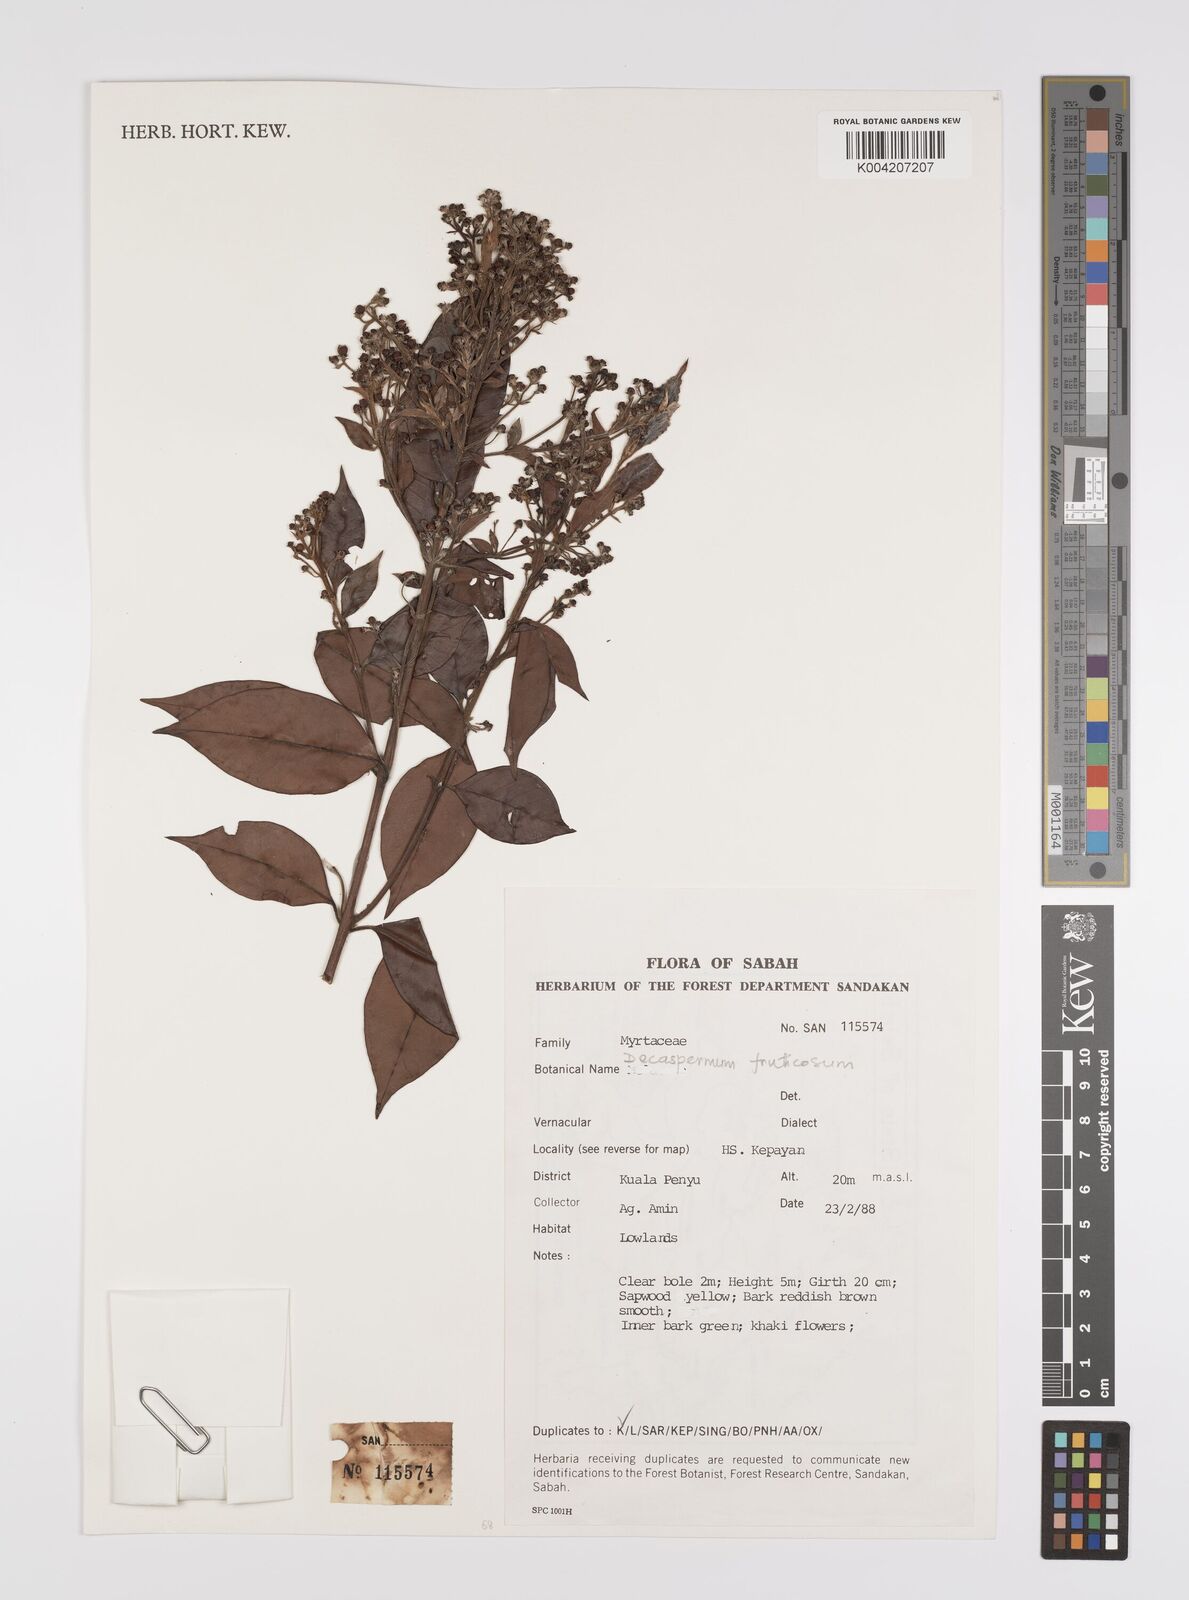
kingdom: Plantae
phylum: Tracheophyta
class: Magnoliopsida
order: Myrtales
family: Myrtaceae
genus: Decaspermum
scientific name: Decaspermum parviflorum
